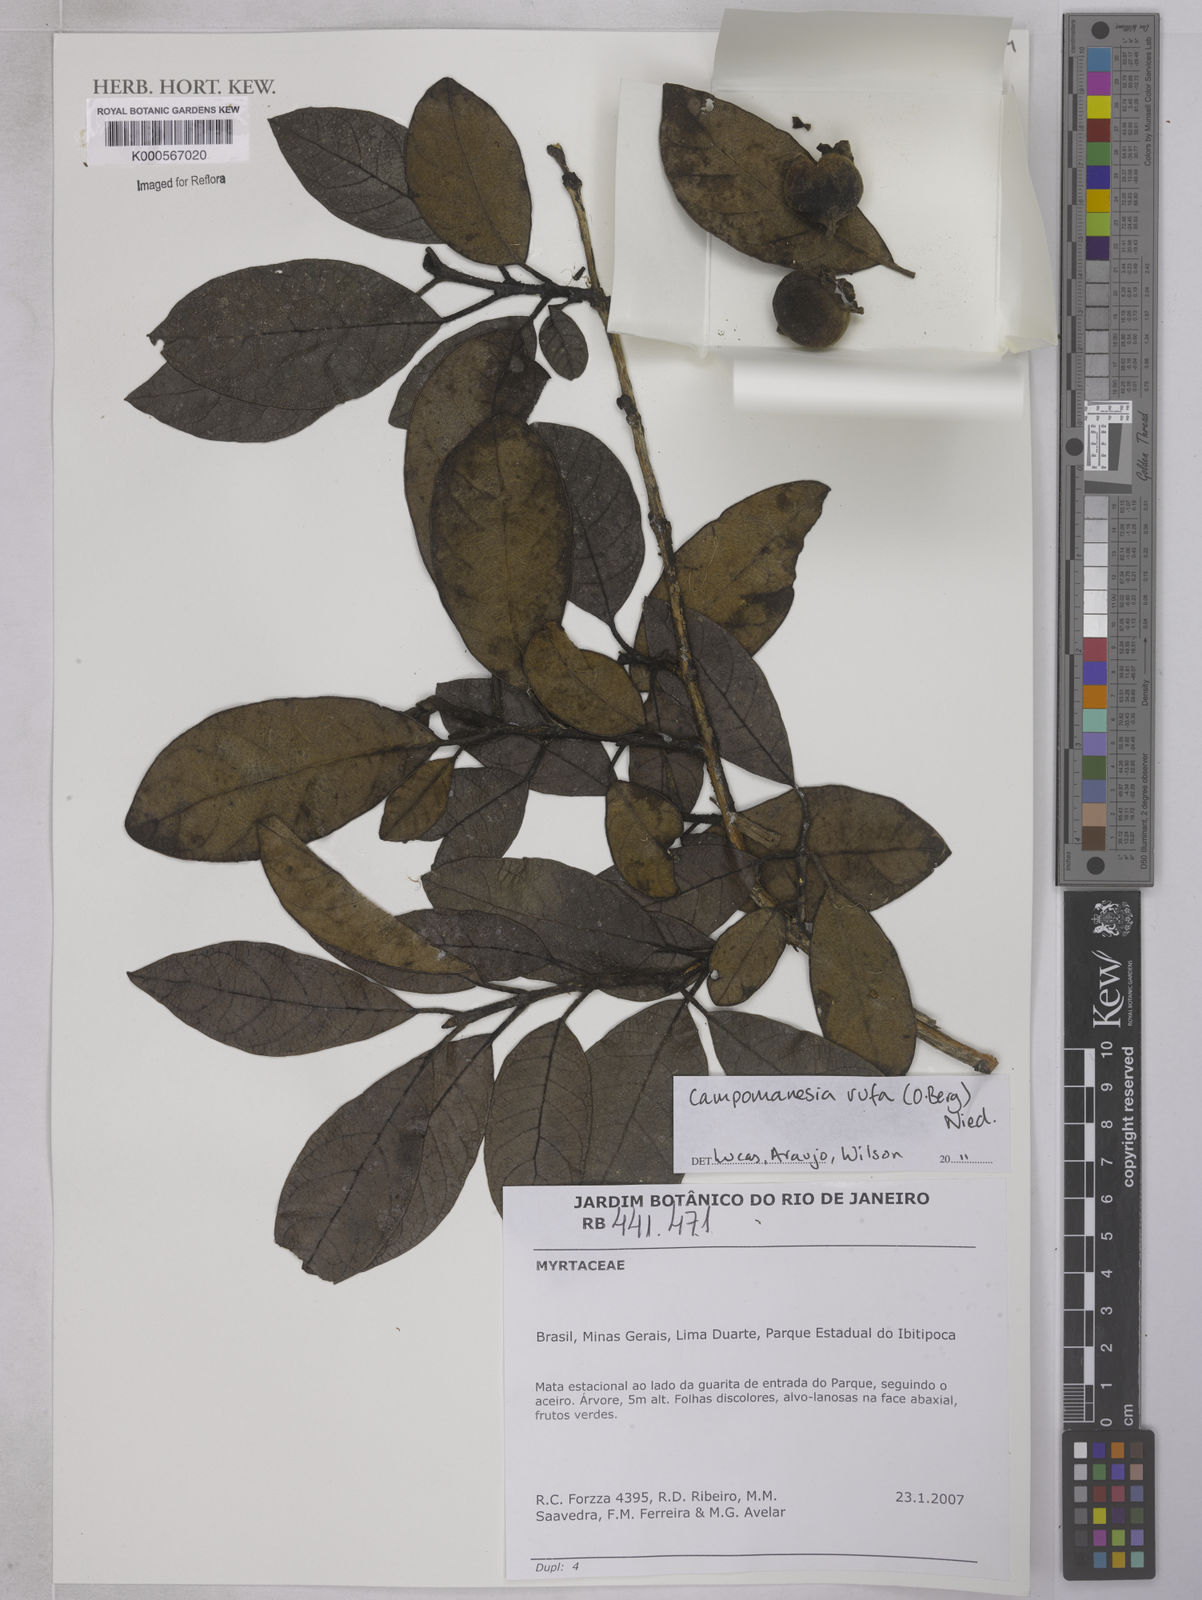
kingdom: Plantae
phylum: Tracheophyta
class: Magnoliopsida
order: Myrtales
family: Myrtaceae
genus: Campomanesia
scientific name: Campomanesia rufa
